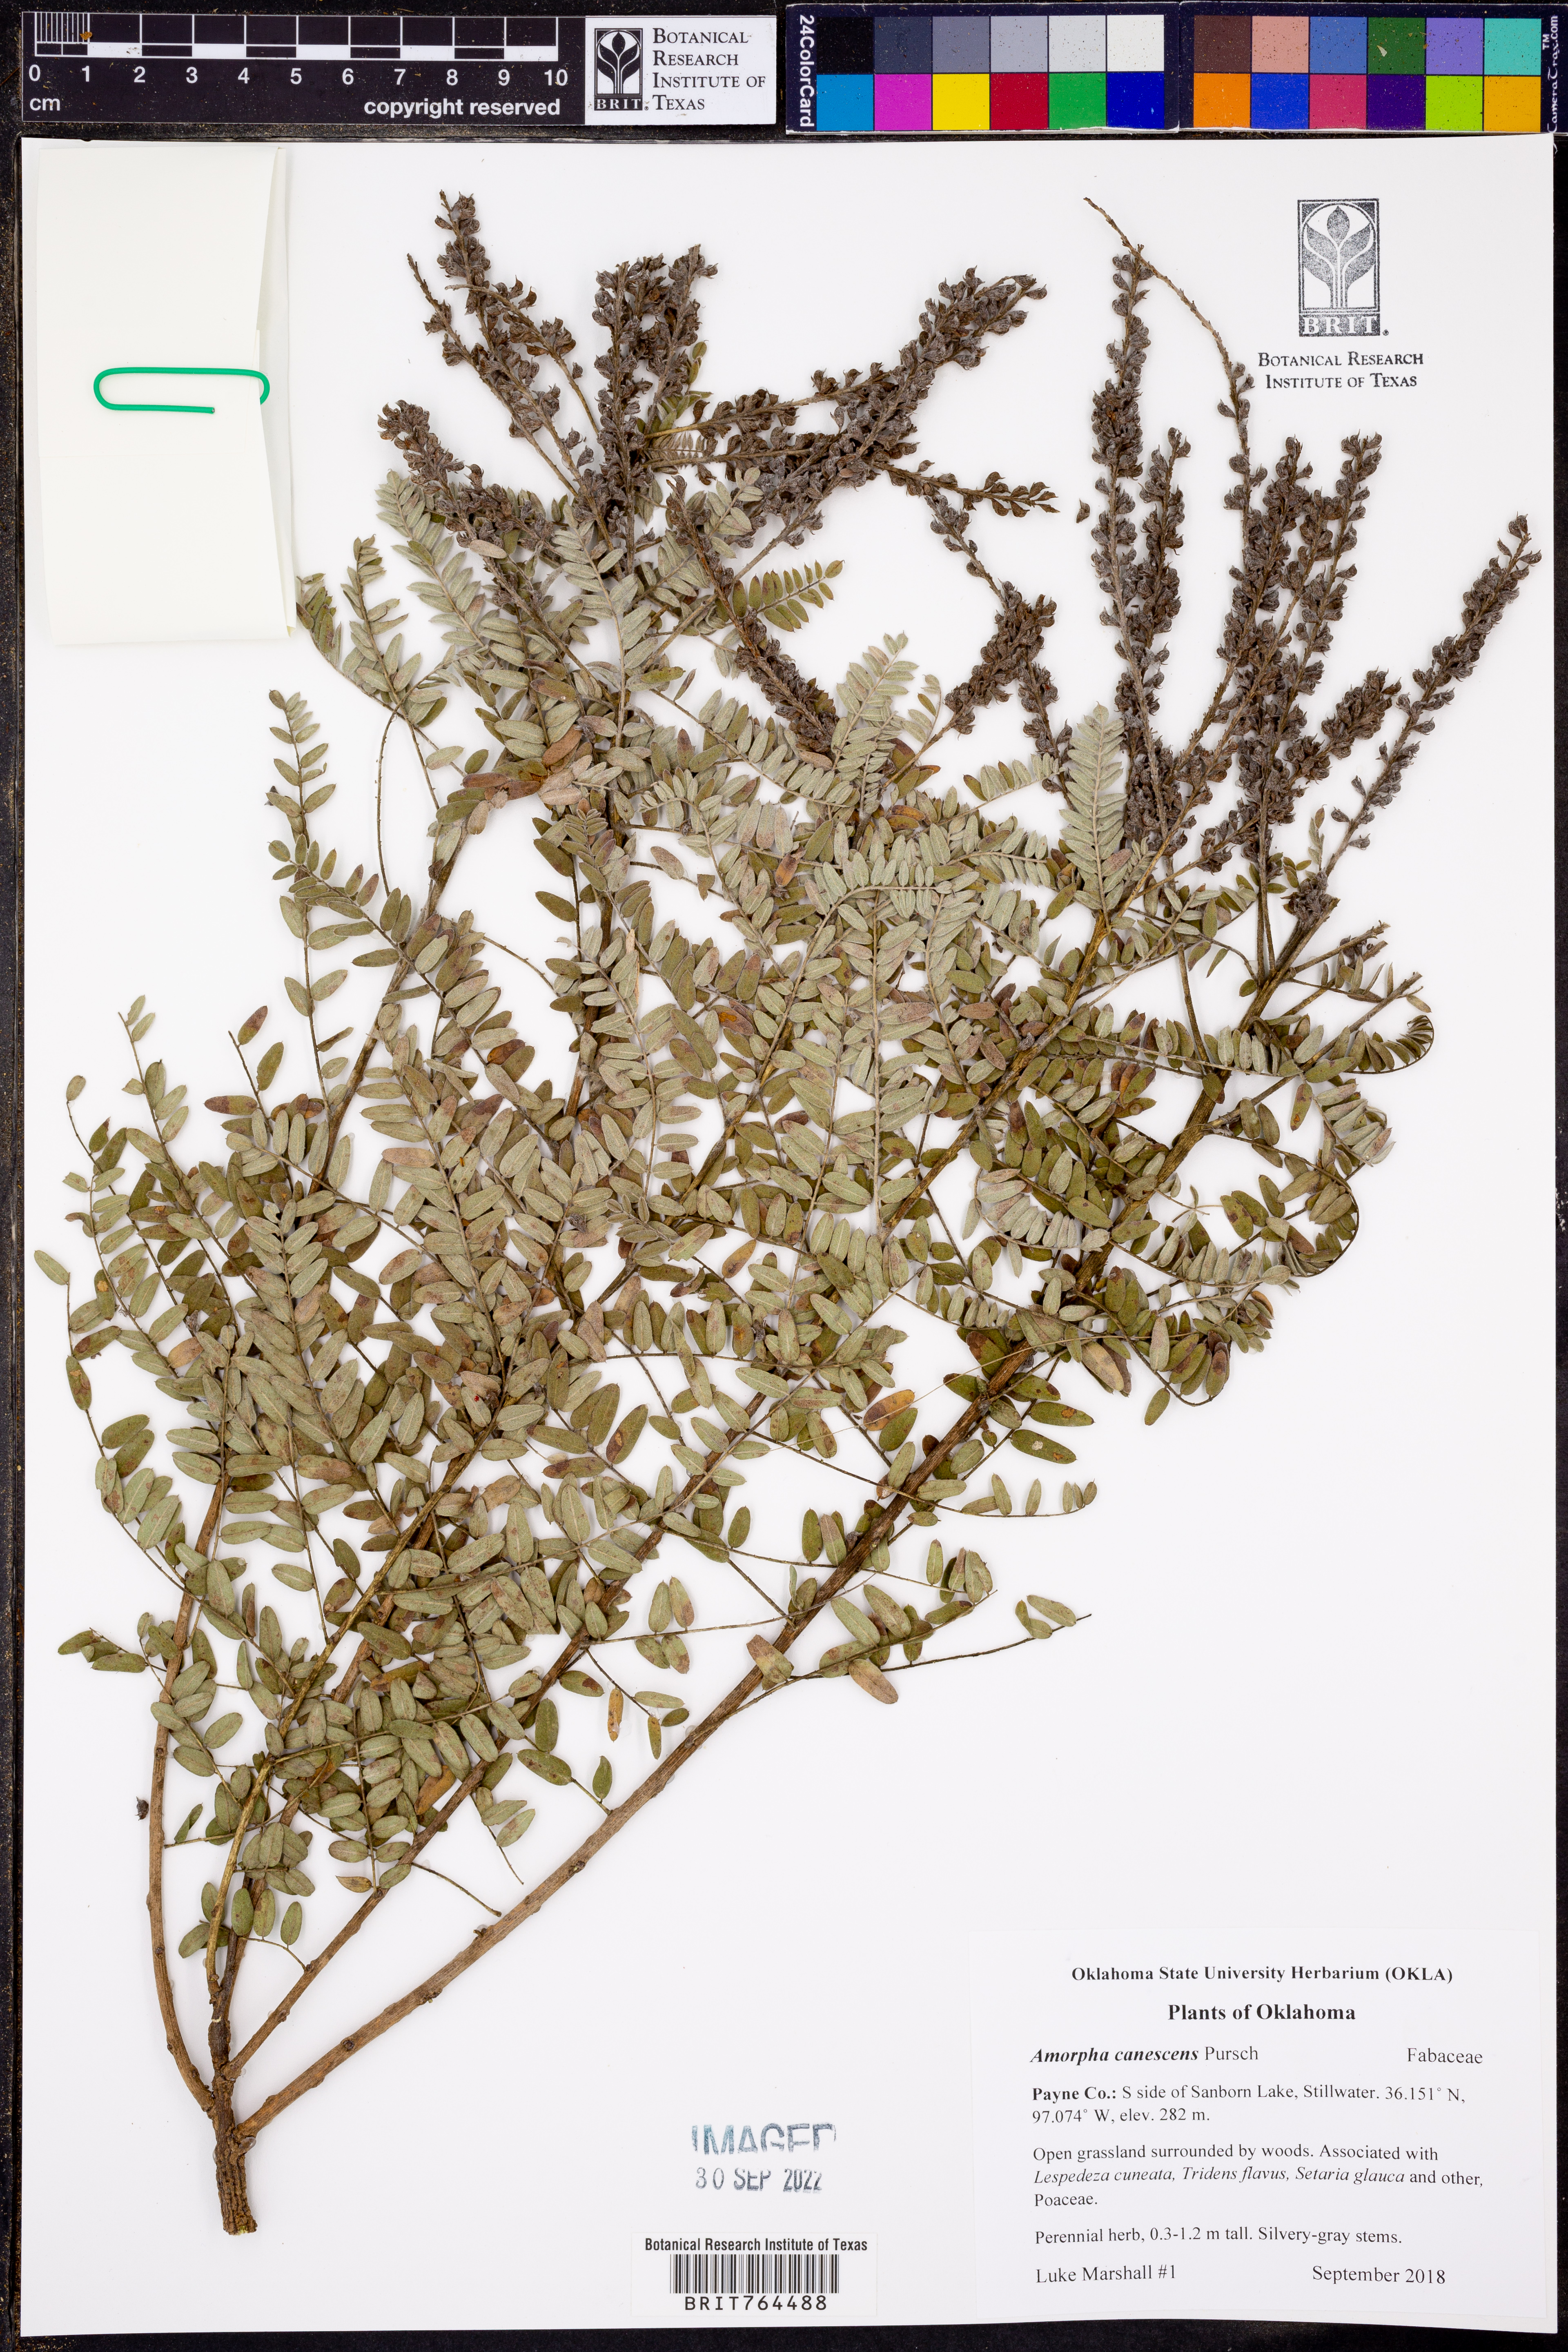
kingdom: Plantae
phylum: Tracheophyta
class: Magnoliopsida
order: Fabales
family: Fabaceae
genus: Amorpha
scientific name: Amorpha canescens
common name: Leadplant
